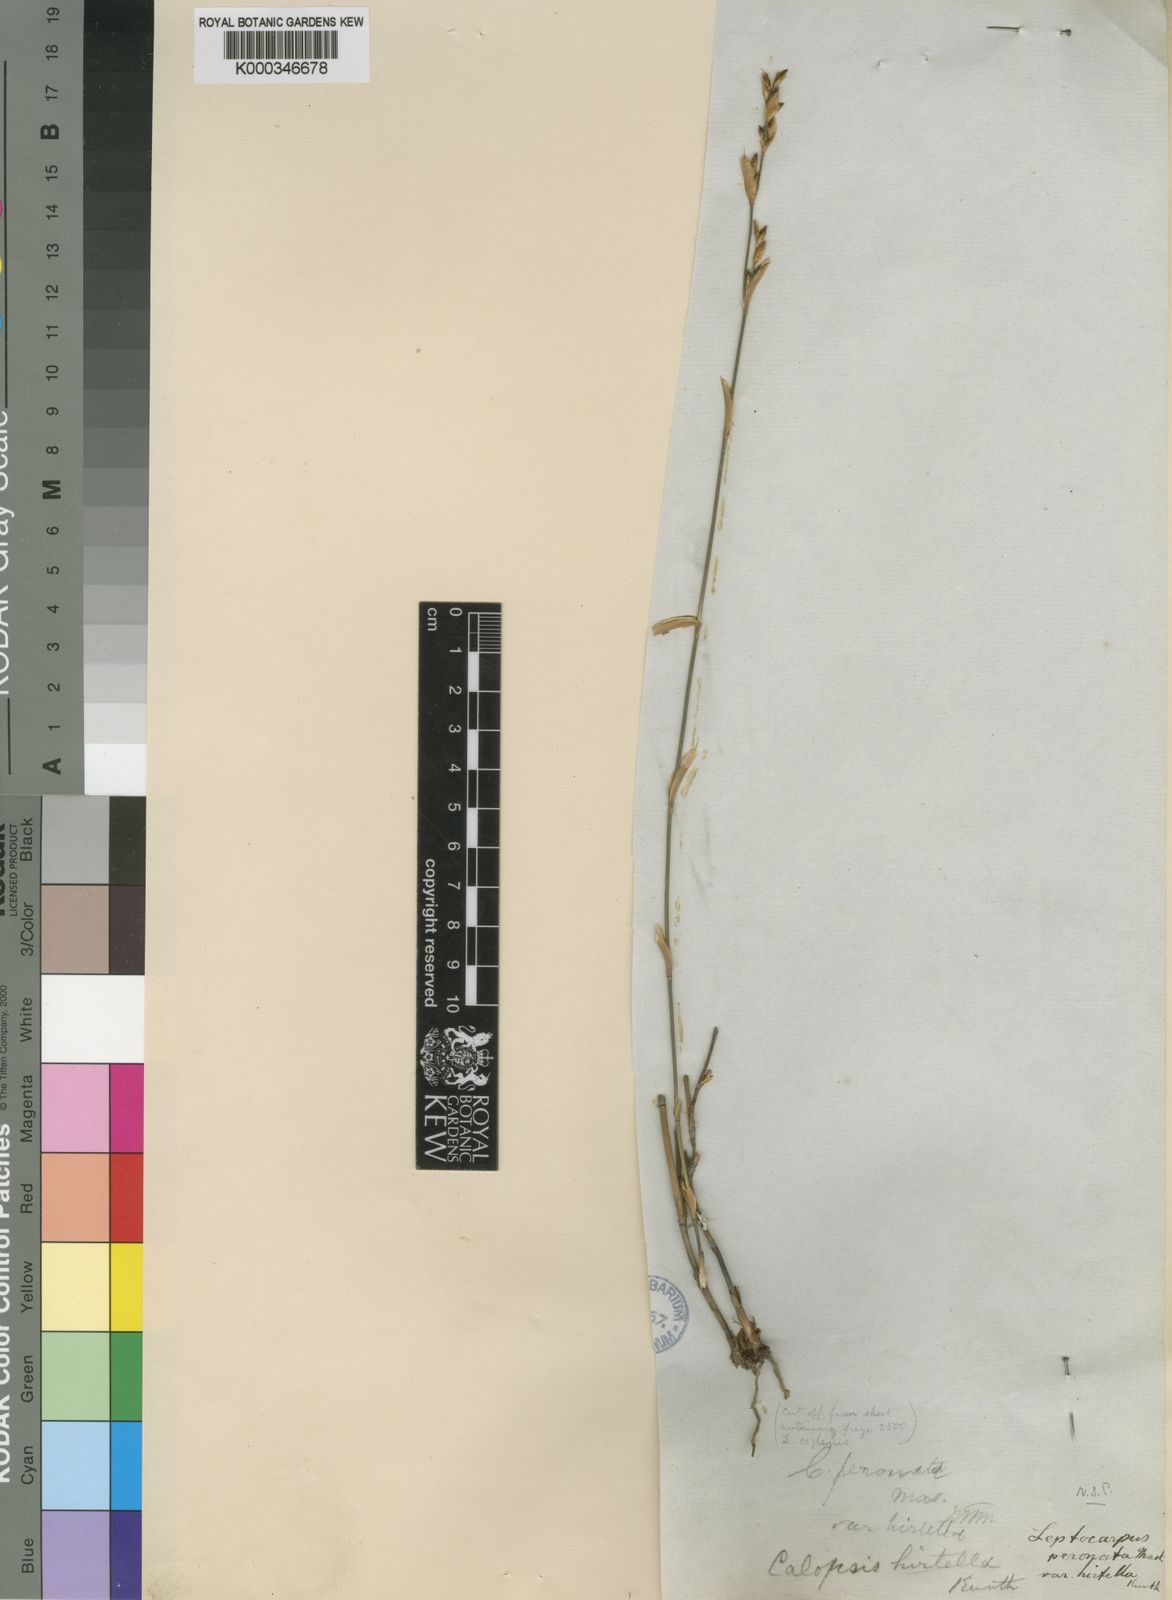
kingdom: Plantae
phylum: Tracheophyta
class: Liliopsida
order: Poales
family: Restionaceae
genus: Restio
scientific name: Restio vimineus
